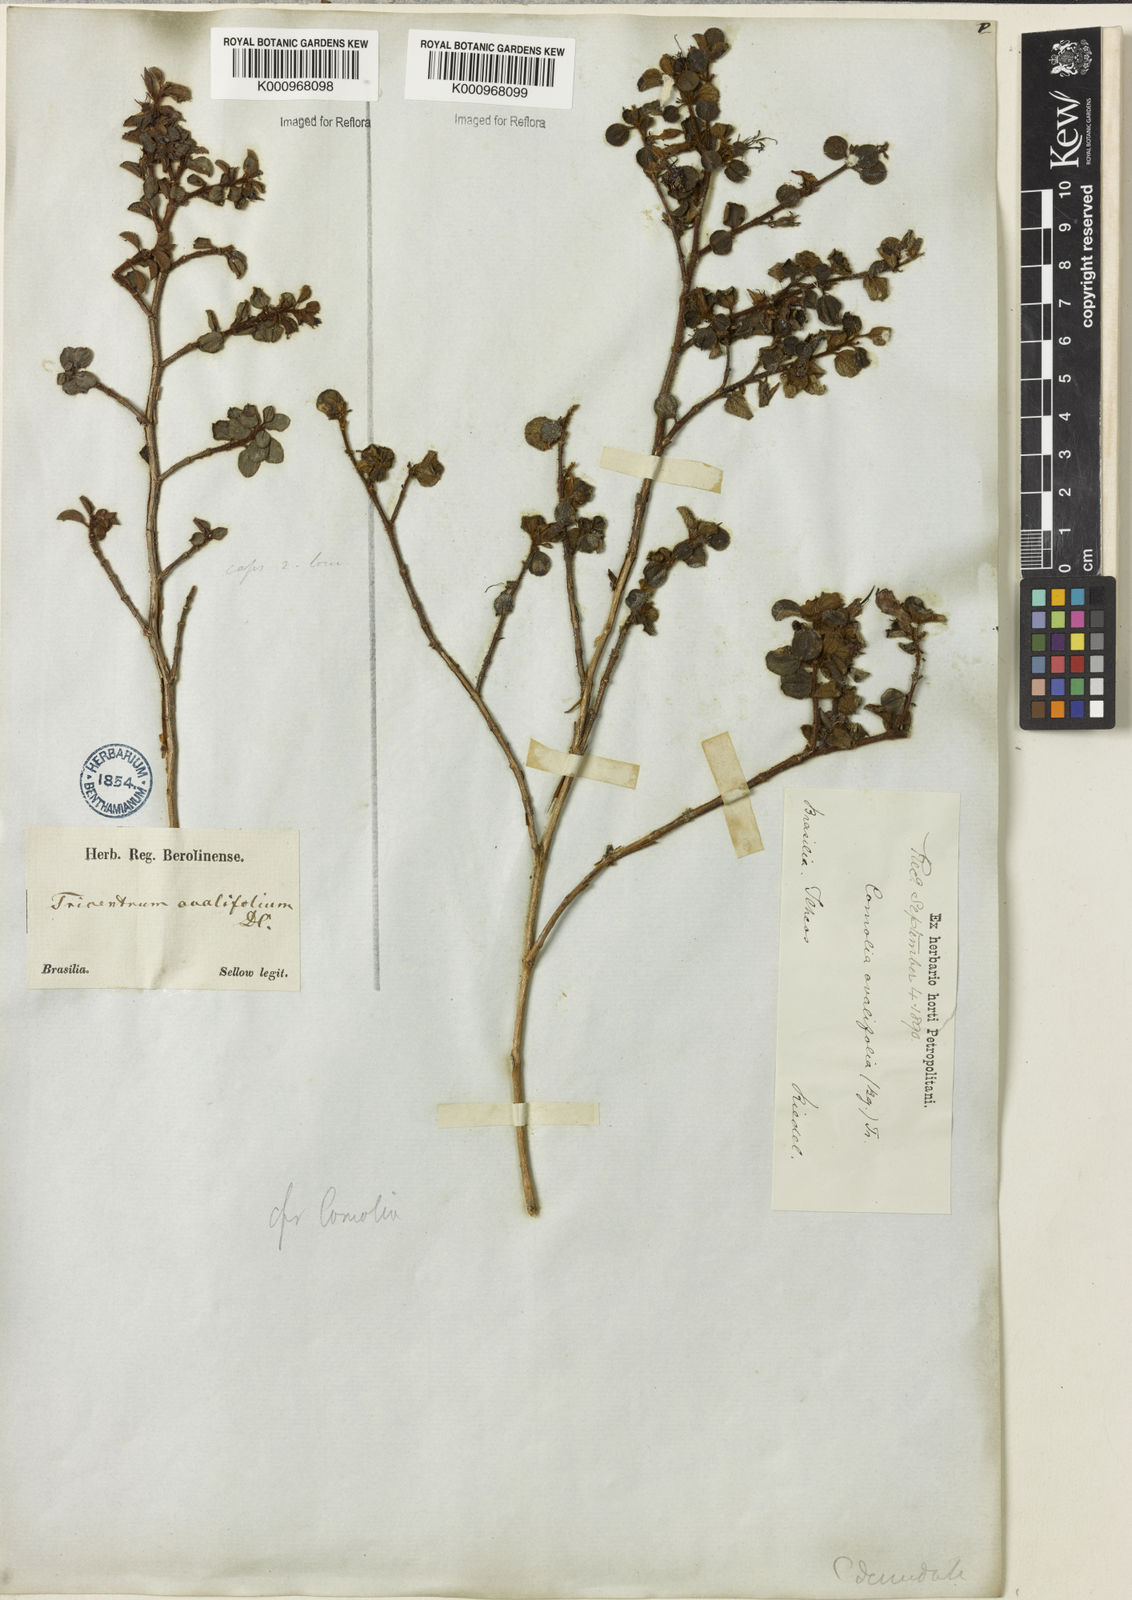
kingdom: Plantae
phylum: Tracheophyta
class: Magnoliopsida
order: Myrtales
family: Melastomataceae
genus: Comolia
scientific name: Comolia ovalifolia
